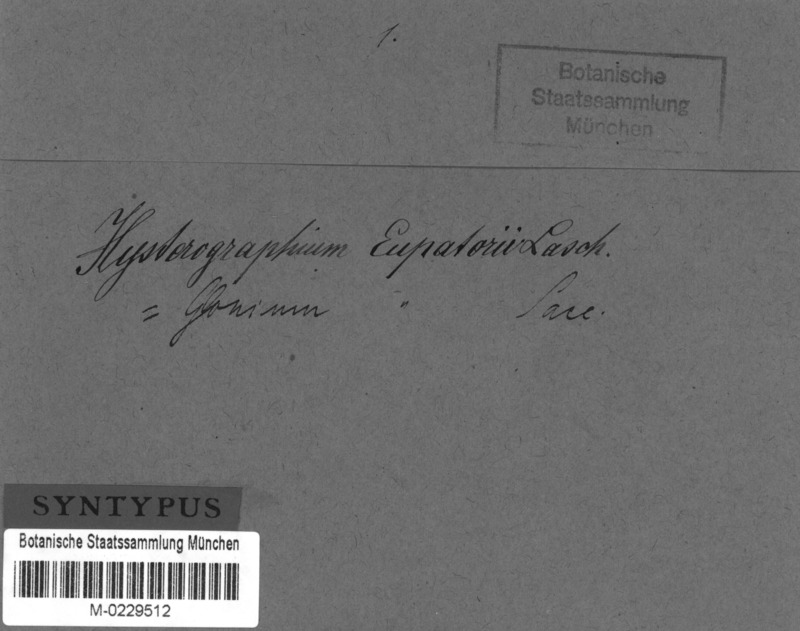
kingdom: Fungi
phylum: Ascomycota
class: Dothideomycetes
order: Mytilinidiales
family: Gloniaceae
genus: Glonium
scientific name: Glonium
